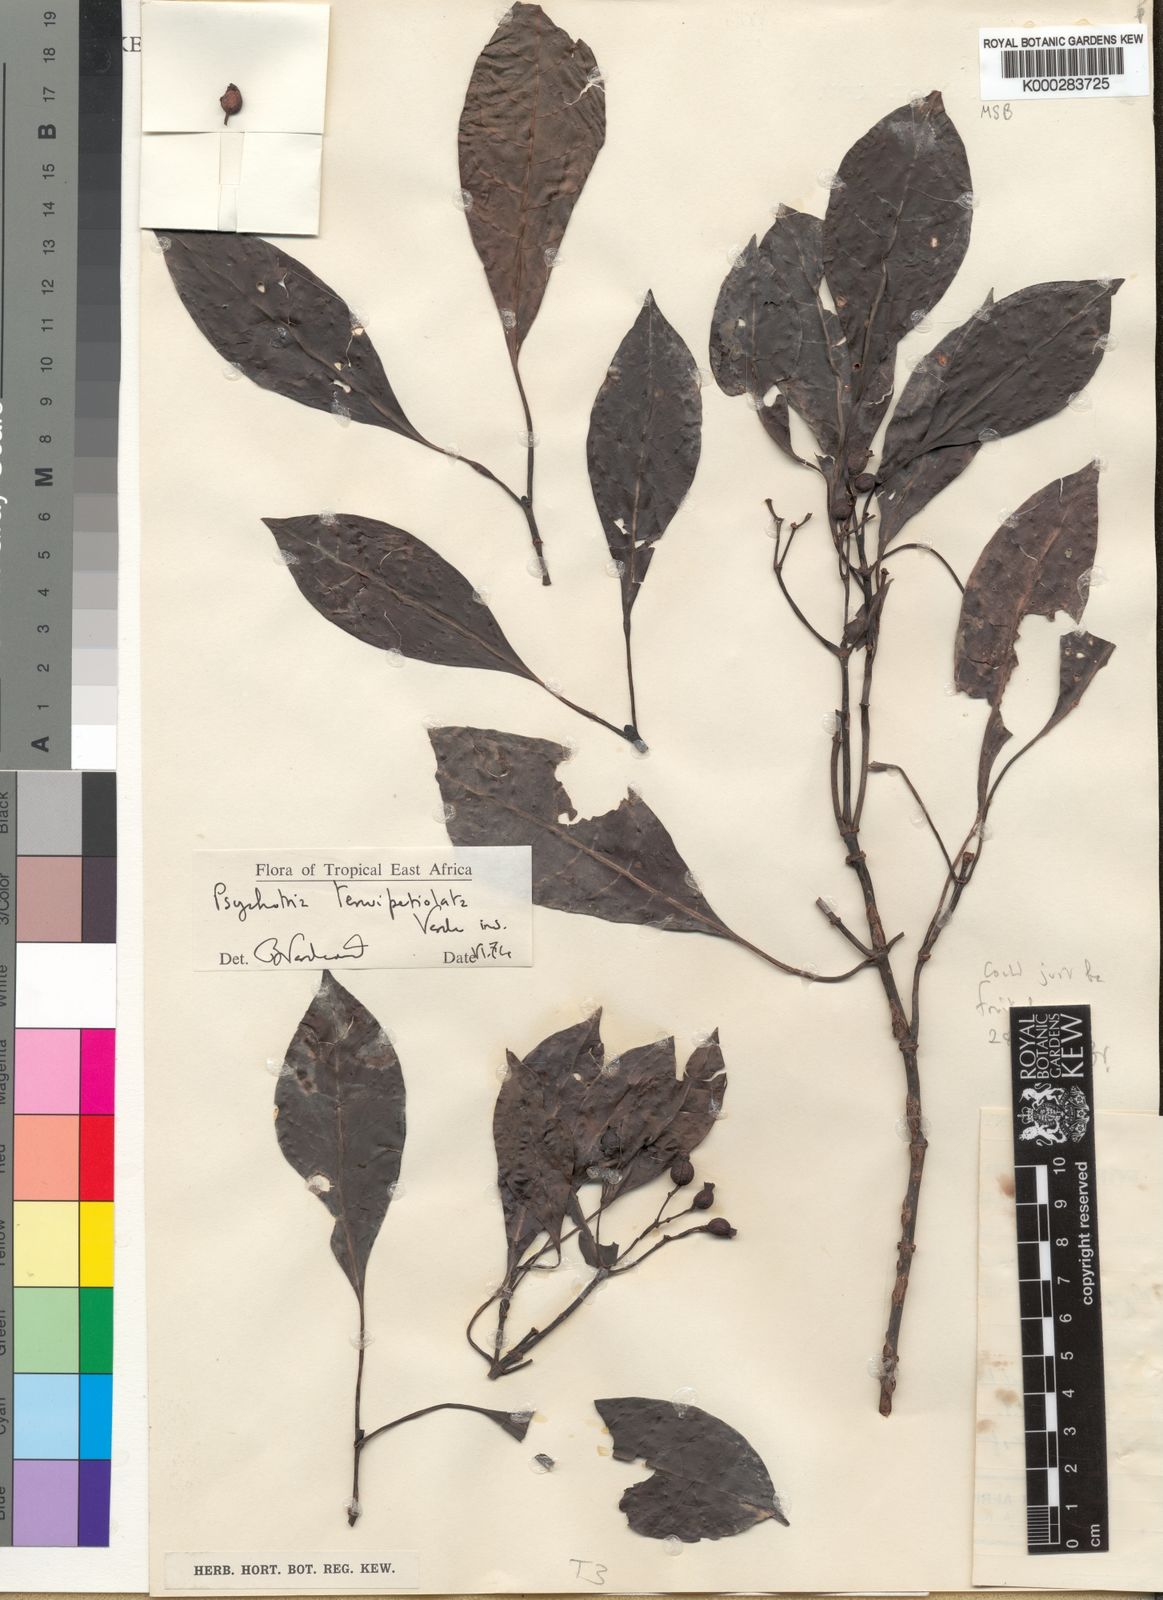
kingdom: Plantae
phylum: Tracheophyta
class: Magnoliopsida
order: Gentianales
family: Rubiaceae
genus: Psychotria
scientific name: Psychotria tenuipetiolata
